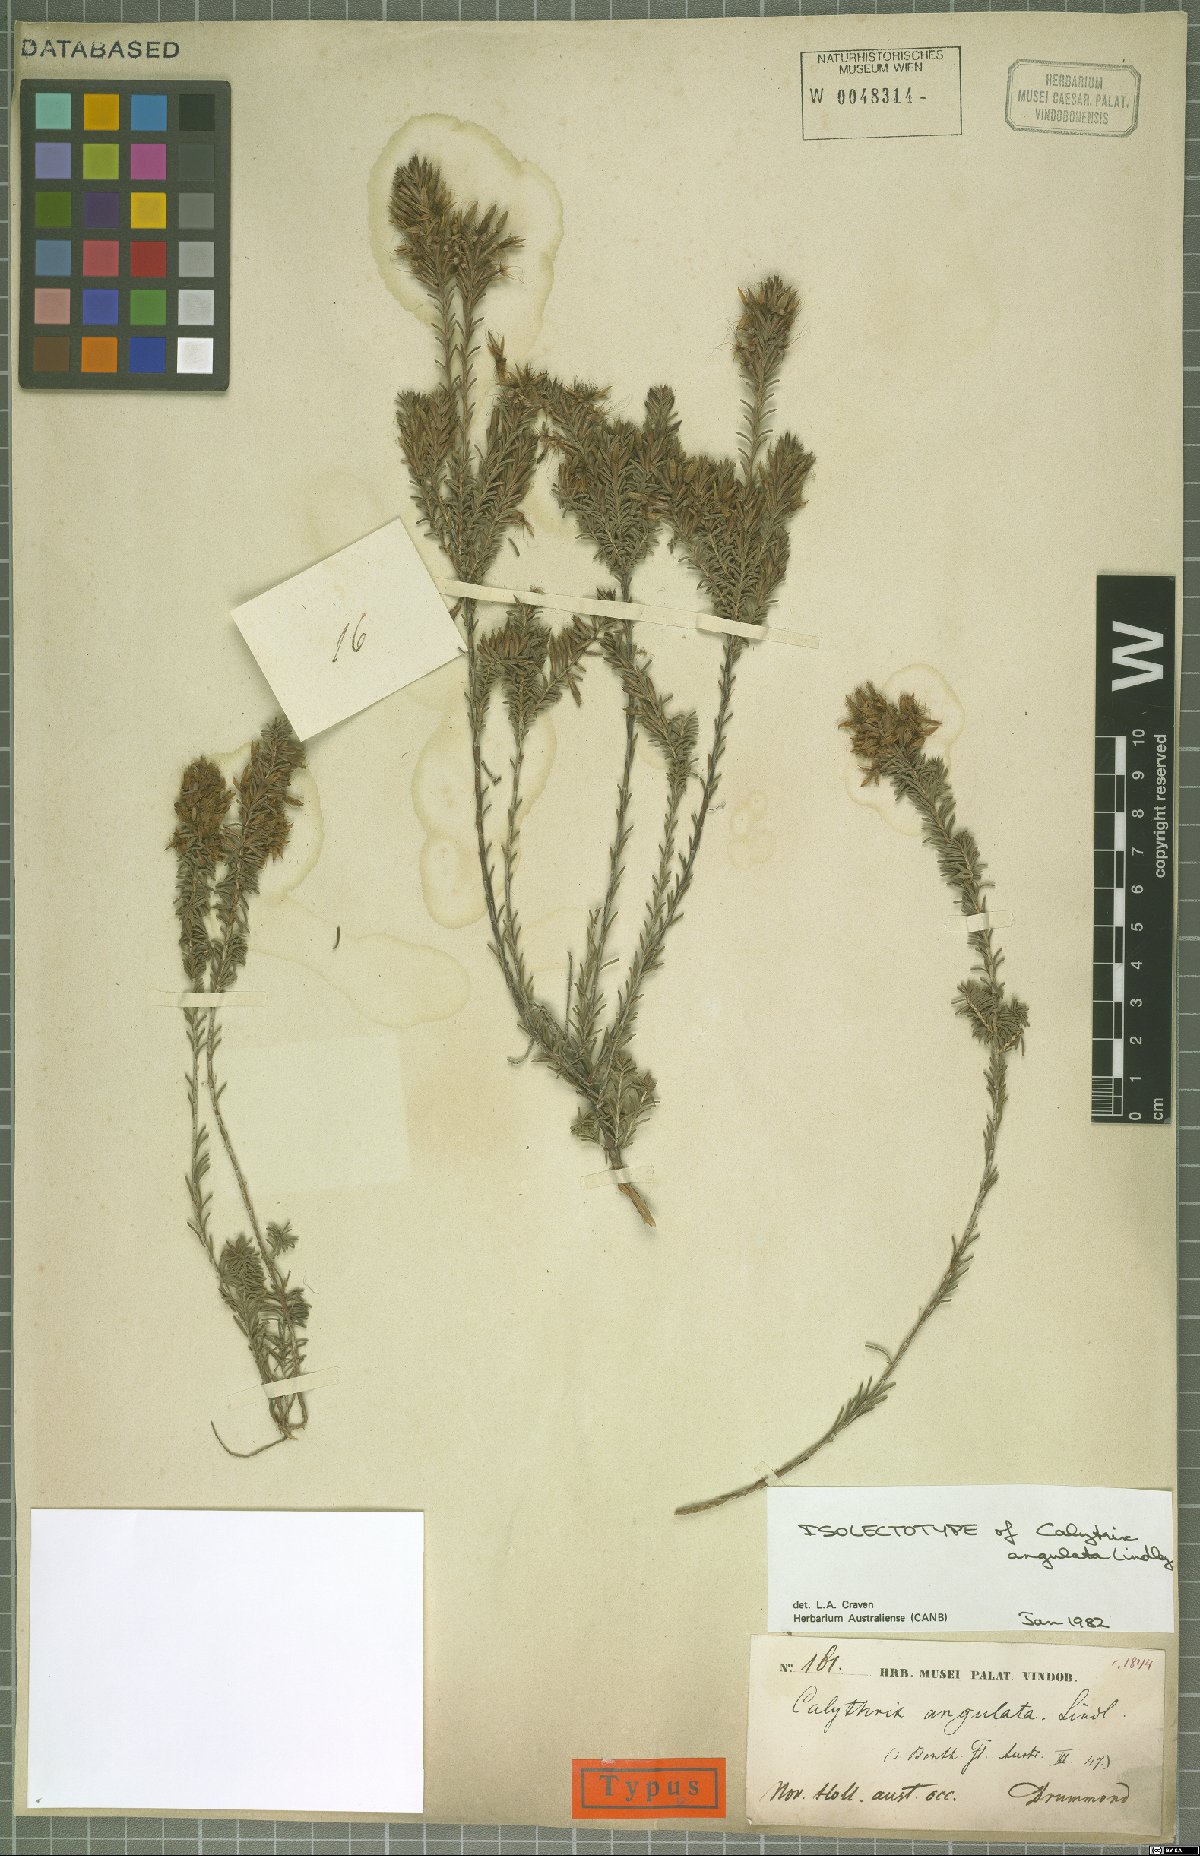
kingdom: Plantae
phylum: Tracheophyta
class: Magnoliopsida
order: Myrtales
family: Myrtaceae
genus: Calytrix
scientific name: Calytrix angulata
